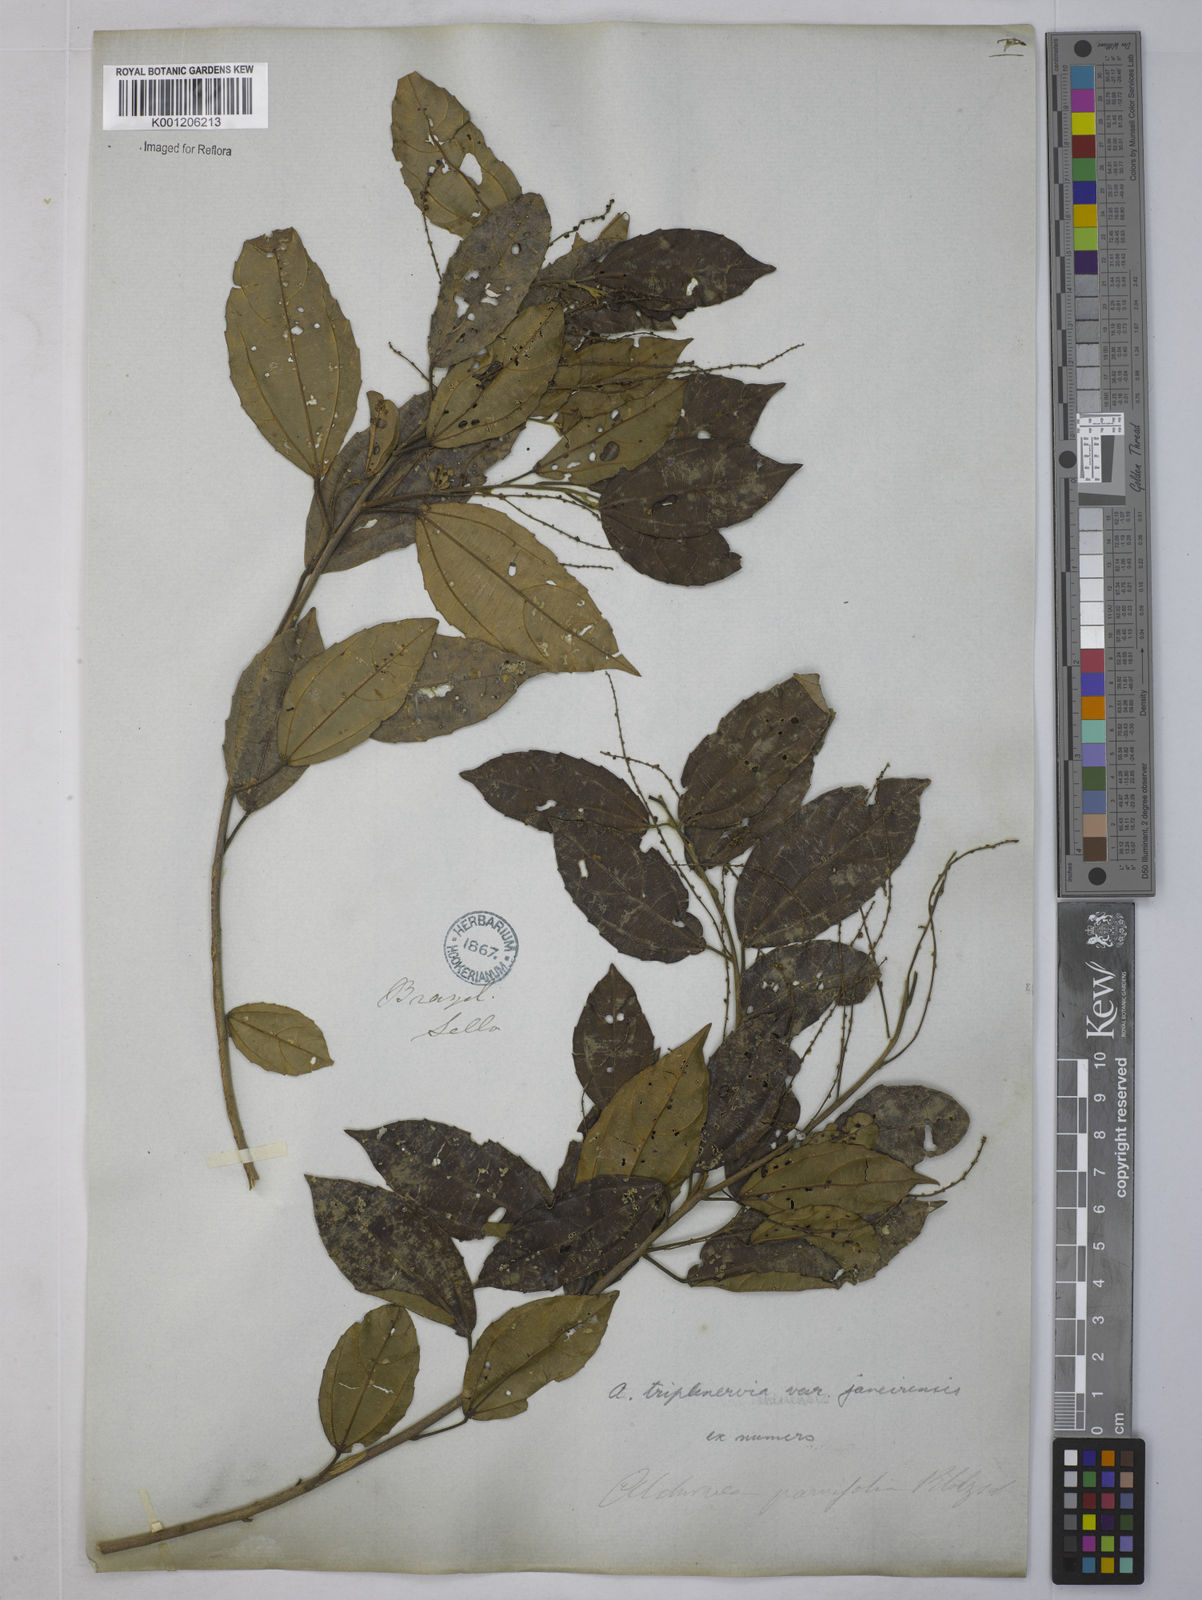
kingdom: Plantae
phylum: Tracheophyta
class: Magnoliopsida
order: Malpighiales
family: Euphorbiaceae
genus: Alchornea
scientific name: Alchornea
